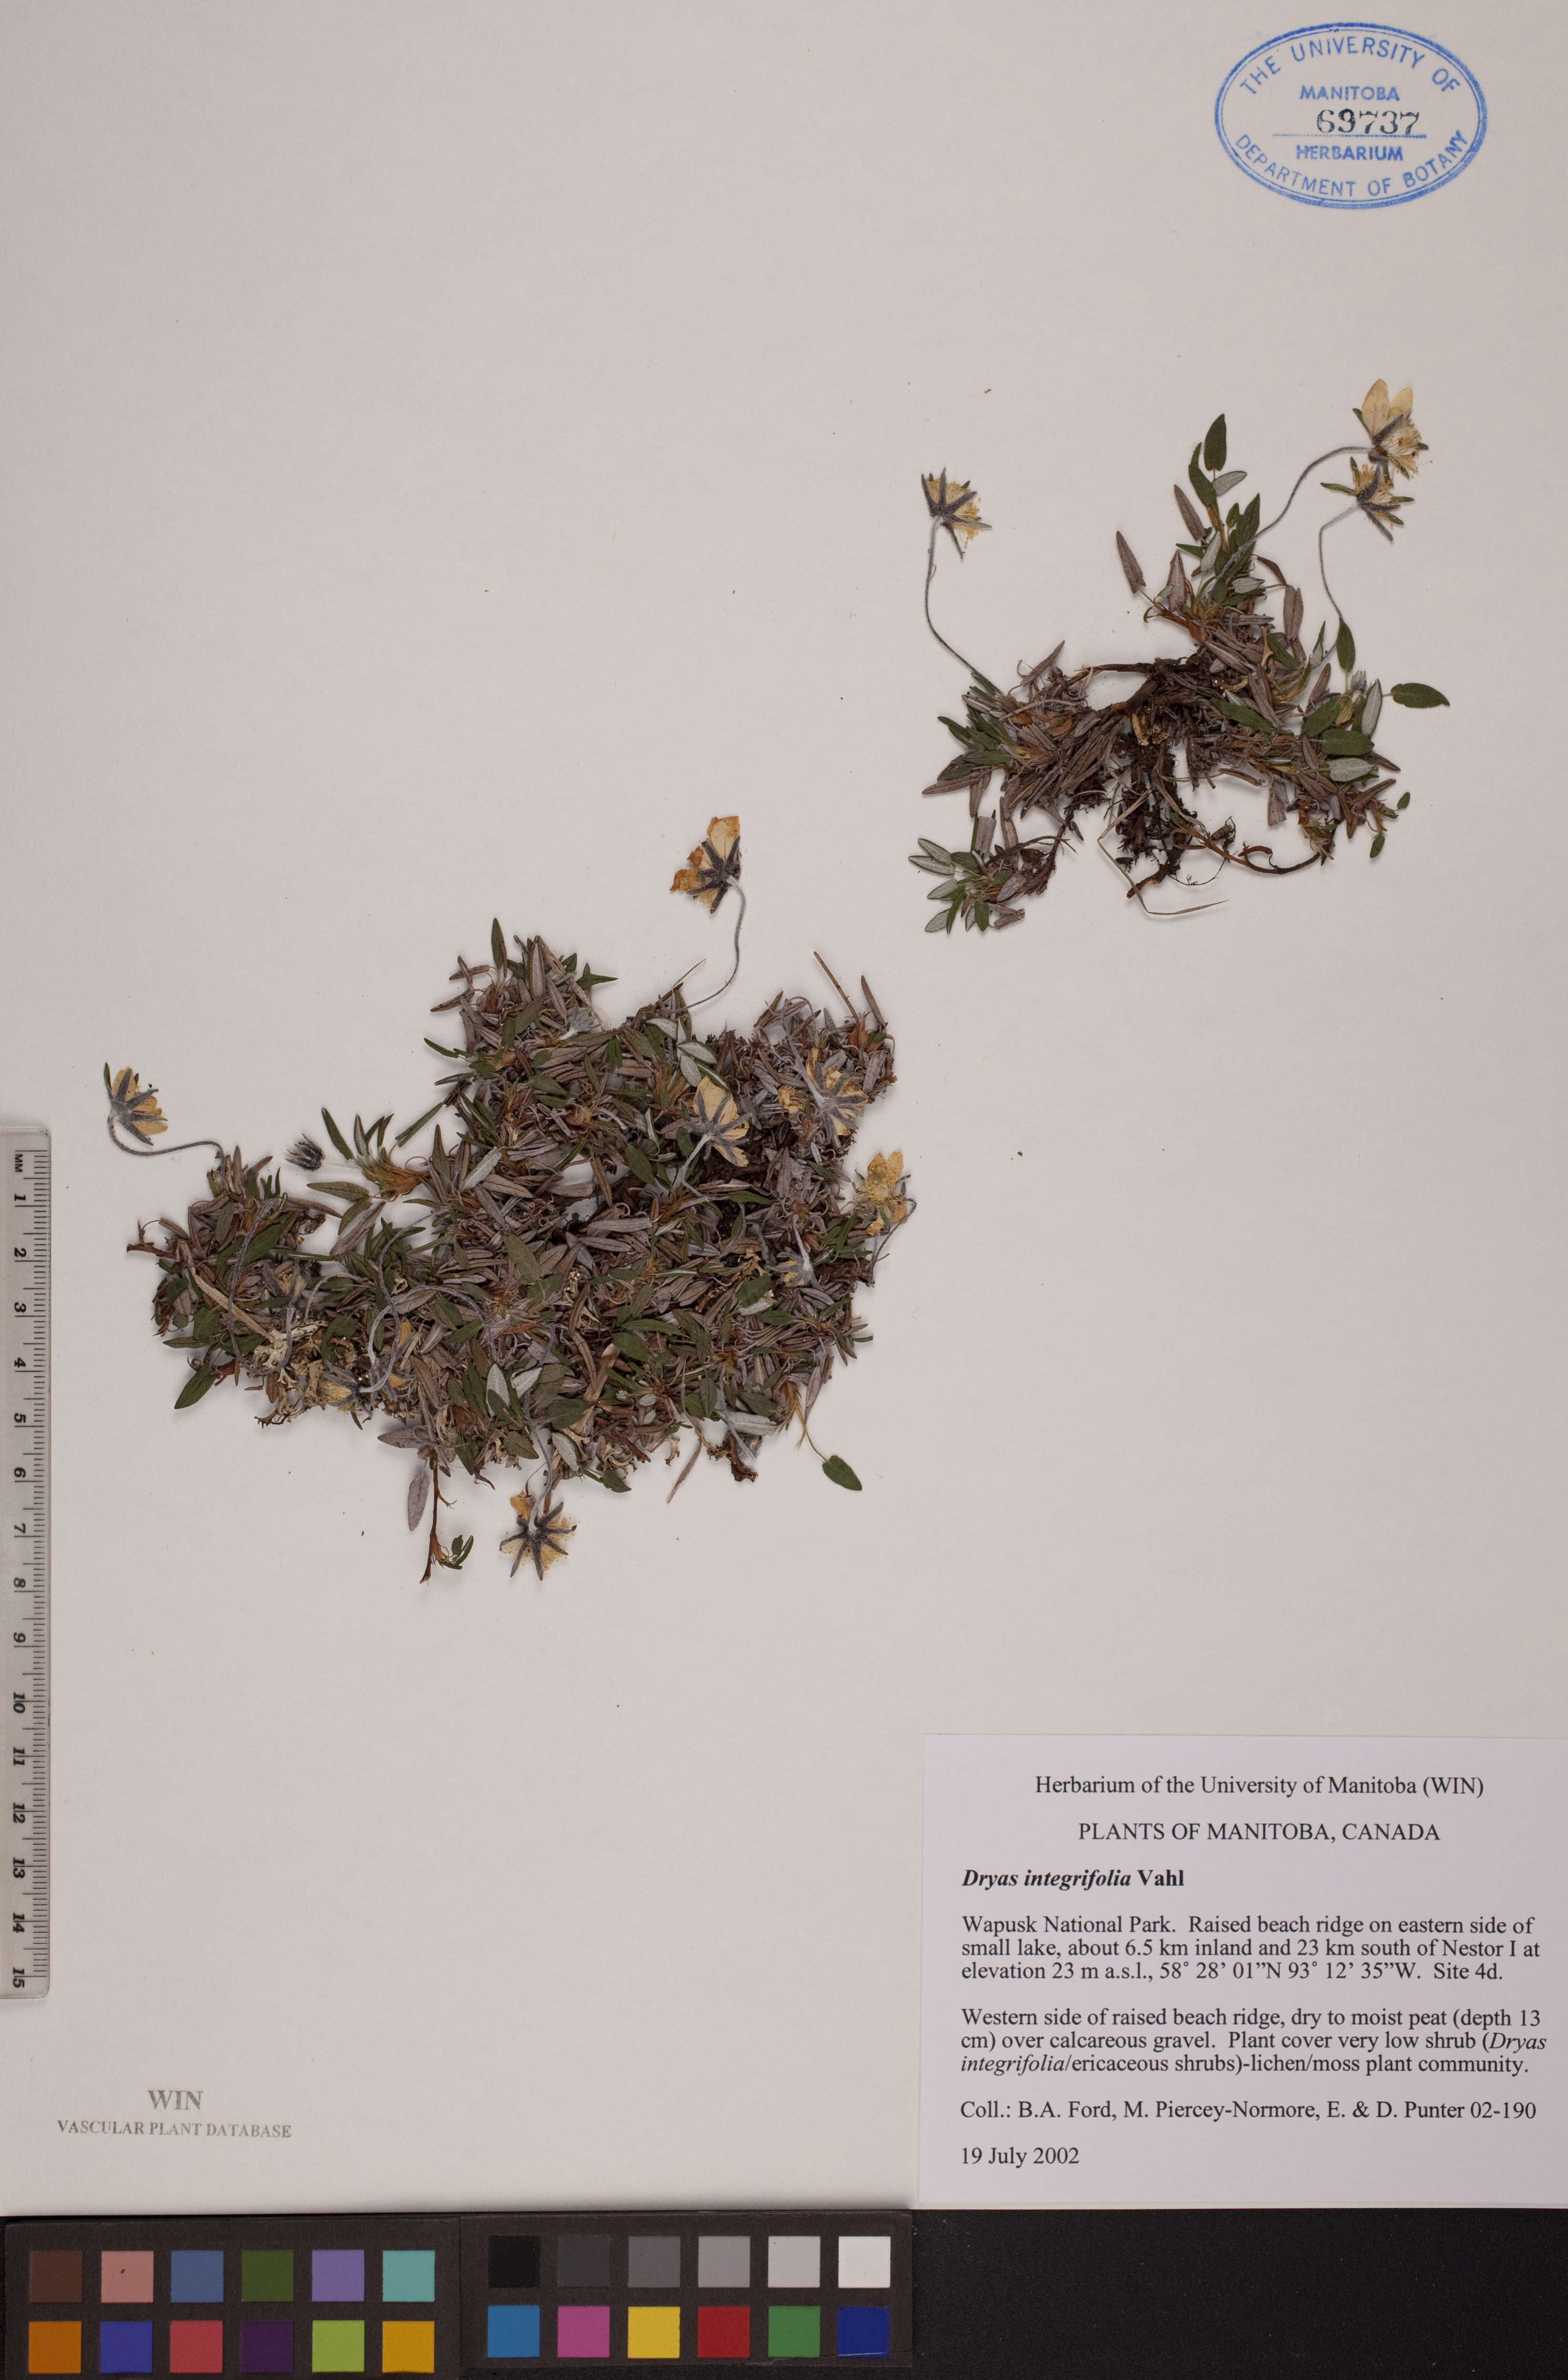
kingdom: Plantae
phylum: Tracheophyta
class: Magnoliopsida
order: Rosales
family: Rosaceae
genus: Dryas
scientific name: Dryas integrifolia
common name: Entire-leaved mountain avens
